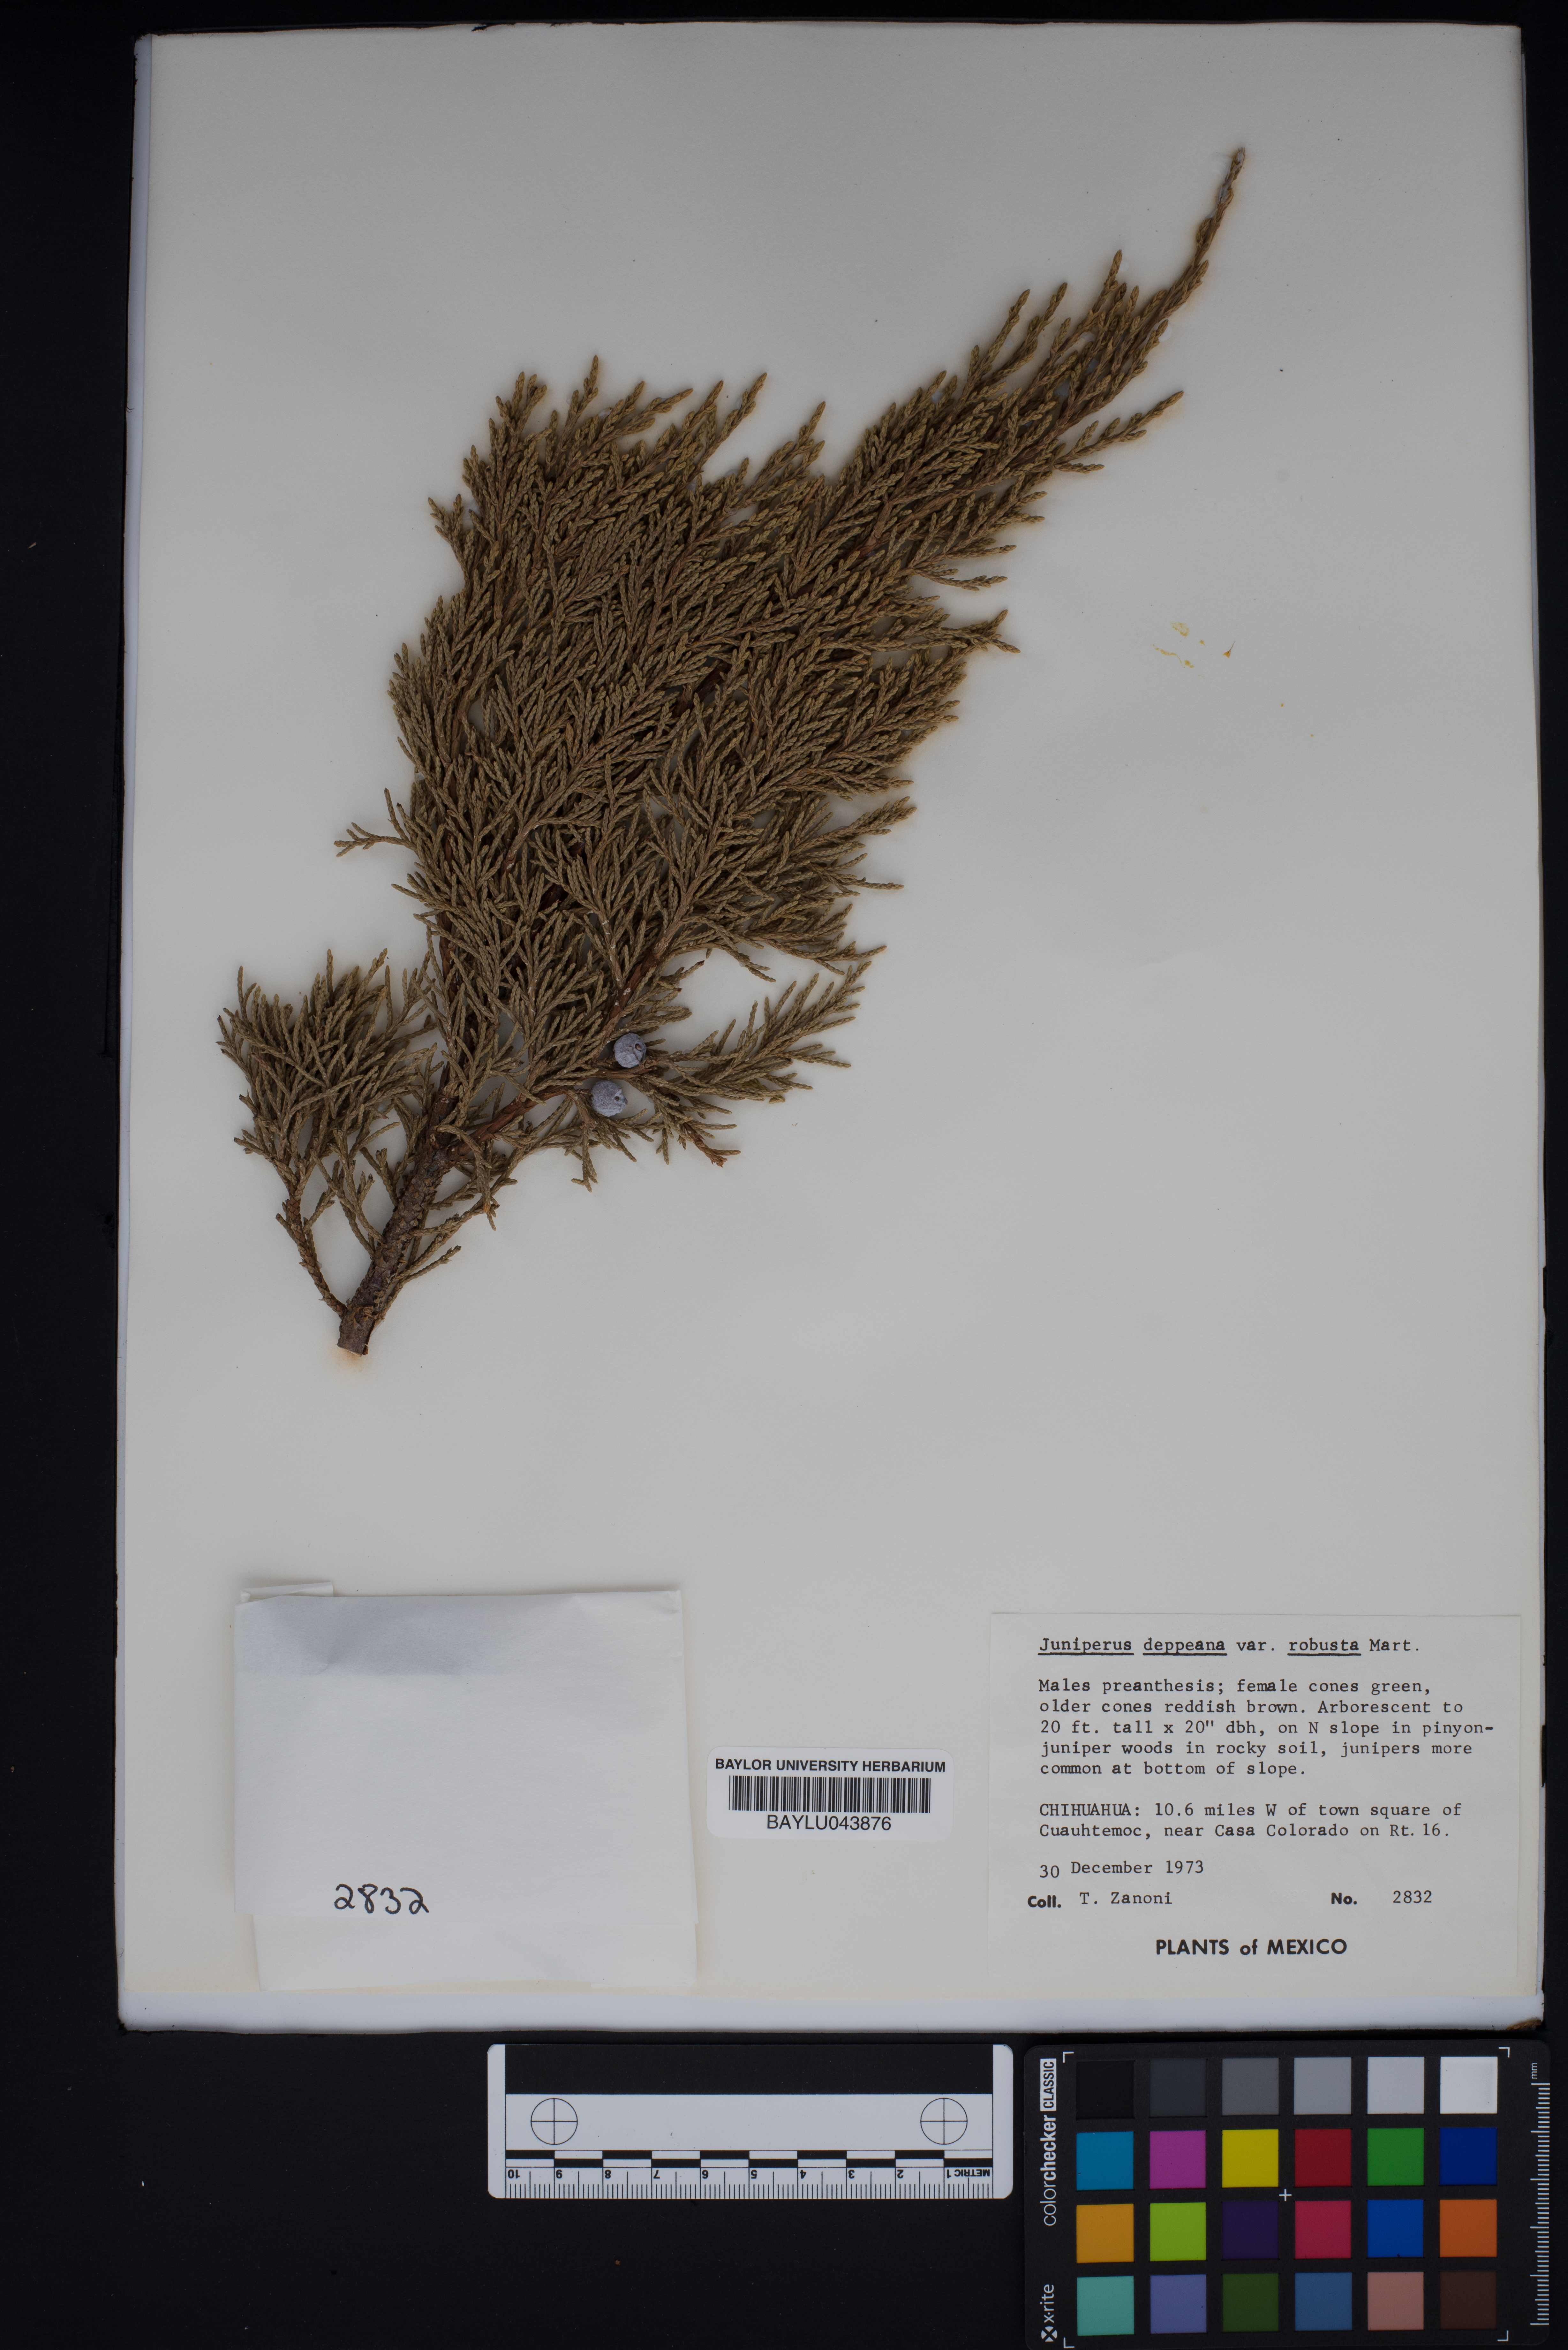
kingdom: Plantae
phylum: Tracheophyta
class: Pinopsida
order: Pinales
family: Cupressaceae
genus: Juniperus
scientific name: Juniperus deppeana
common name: Alligator juniper
